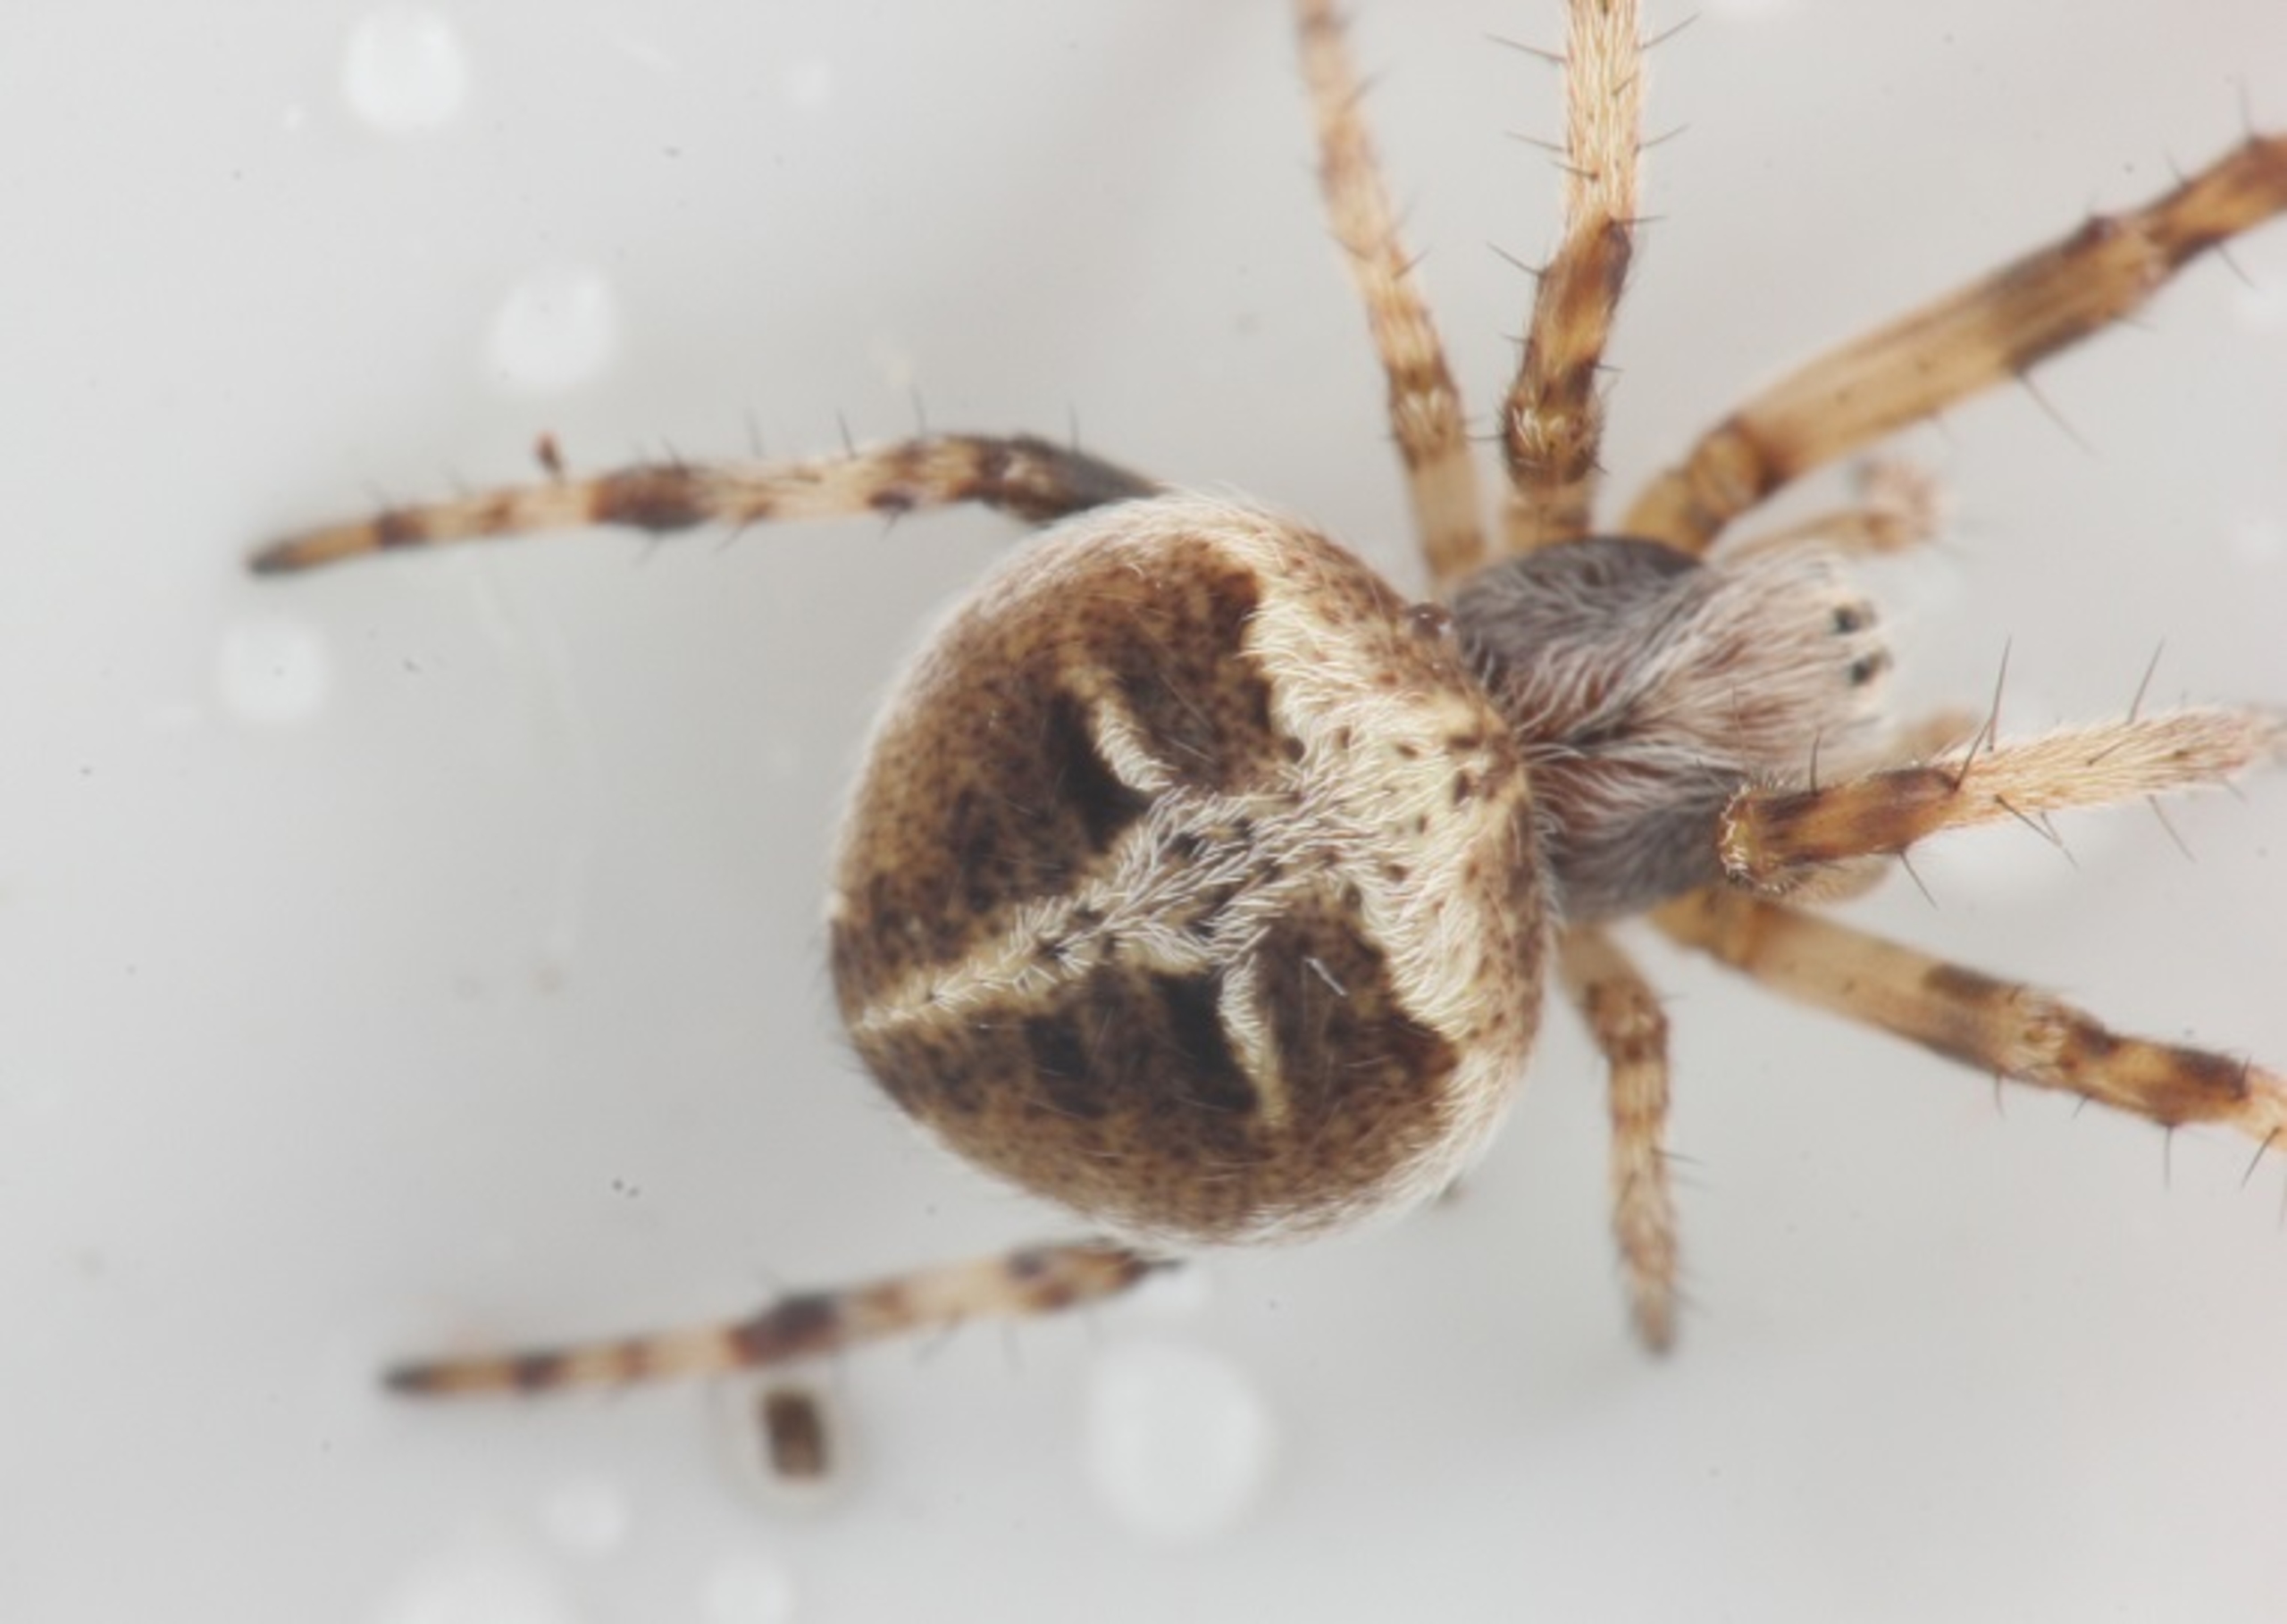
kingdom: Animalia
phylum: Arthropoda
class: Arachnida
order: Araneae
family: Araneidae
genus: Agalenatea
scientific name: Agalenatea redii
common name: Lodden hjulspinder
